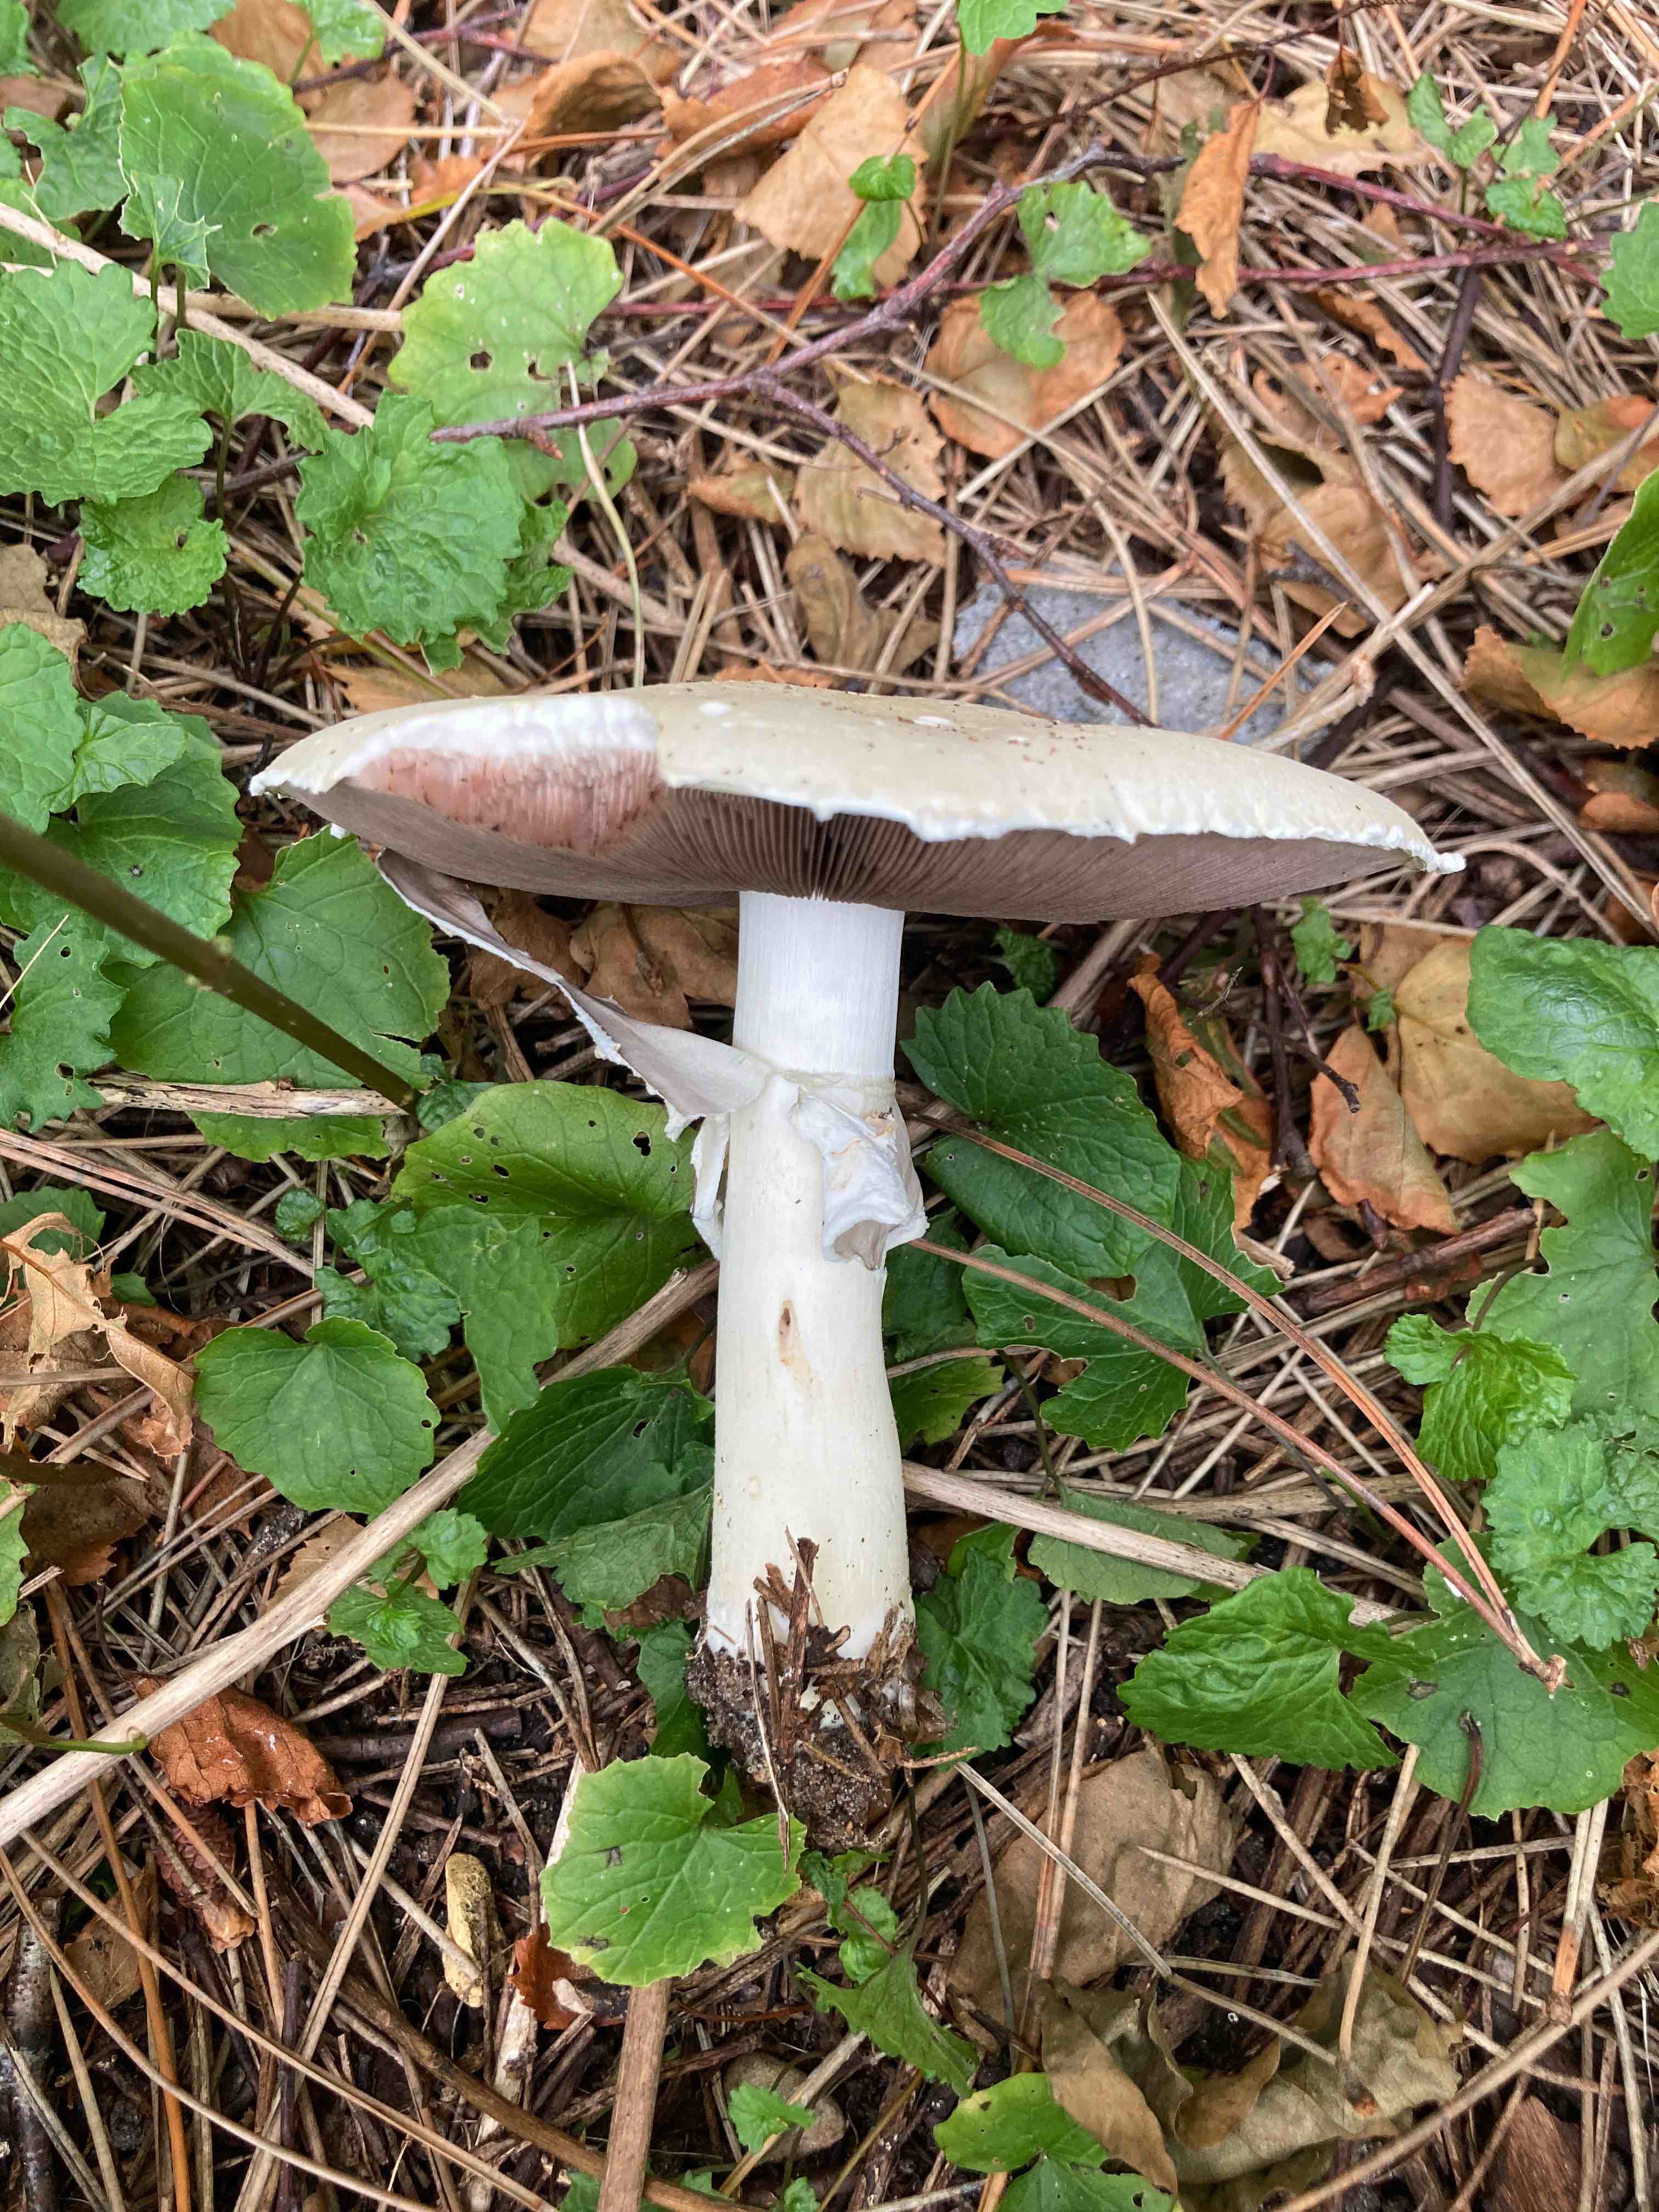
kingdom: Fungi
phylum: Basidiomycota
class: Agaricomycetes
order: Agaricales
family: Agaricaceae
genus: Agaricus
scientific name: Agaricus
